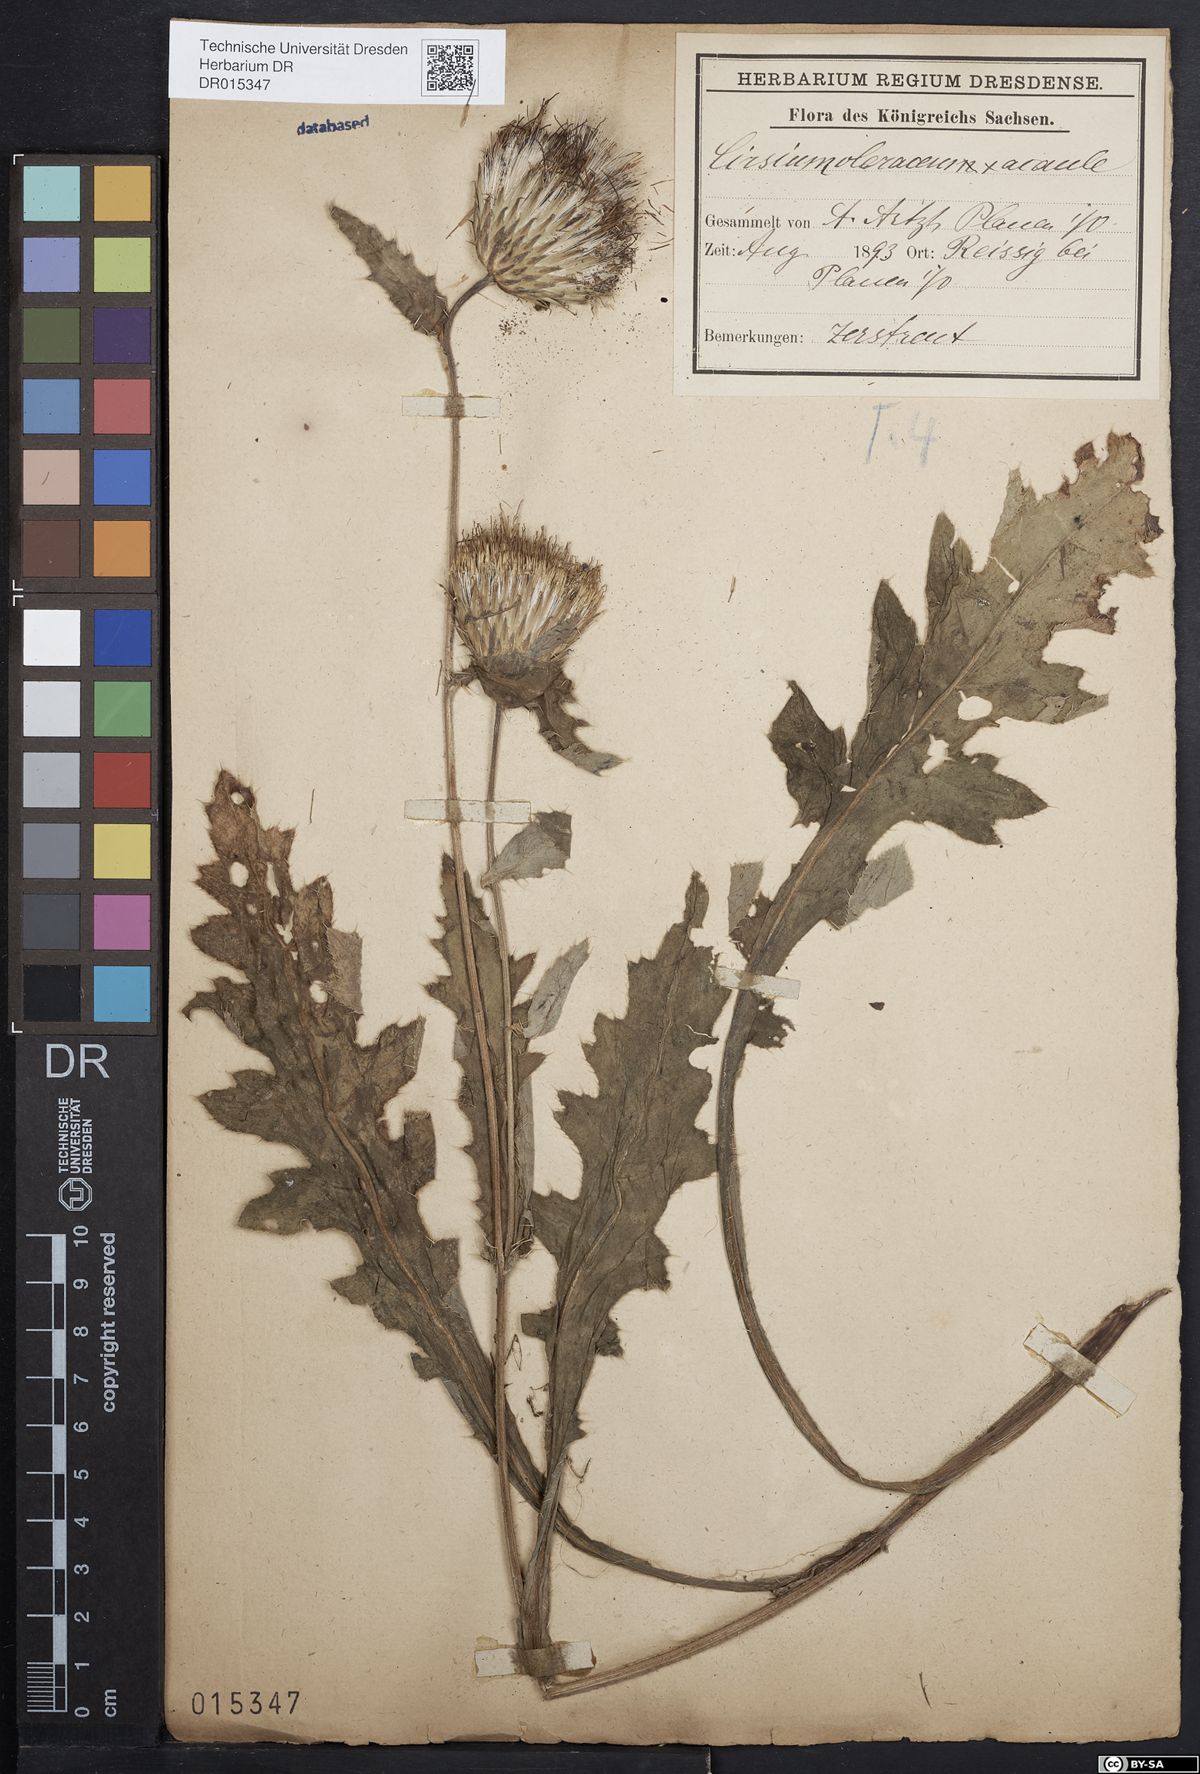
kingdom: Plantae
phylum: Tracheophyta
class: Magnoliopsida
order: Asterales
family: Asteraceae
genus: Cirsium
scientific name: Cirsium rigens
